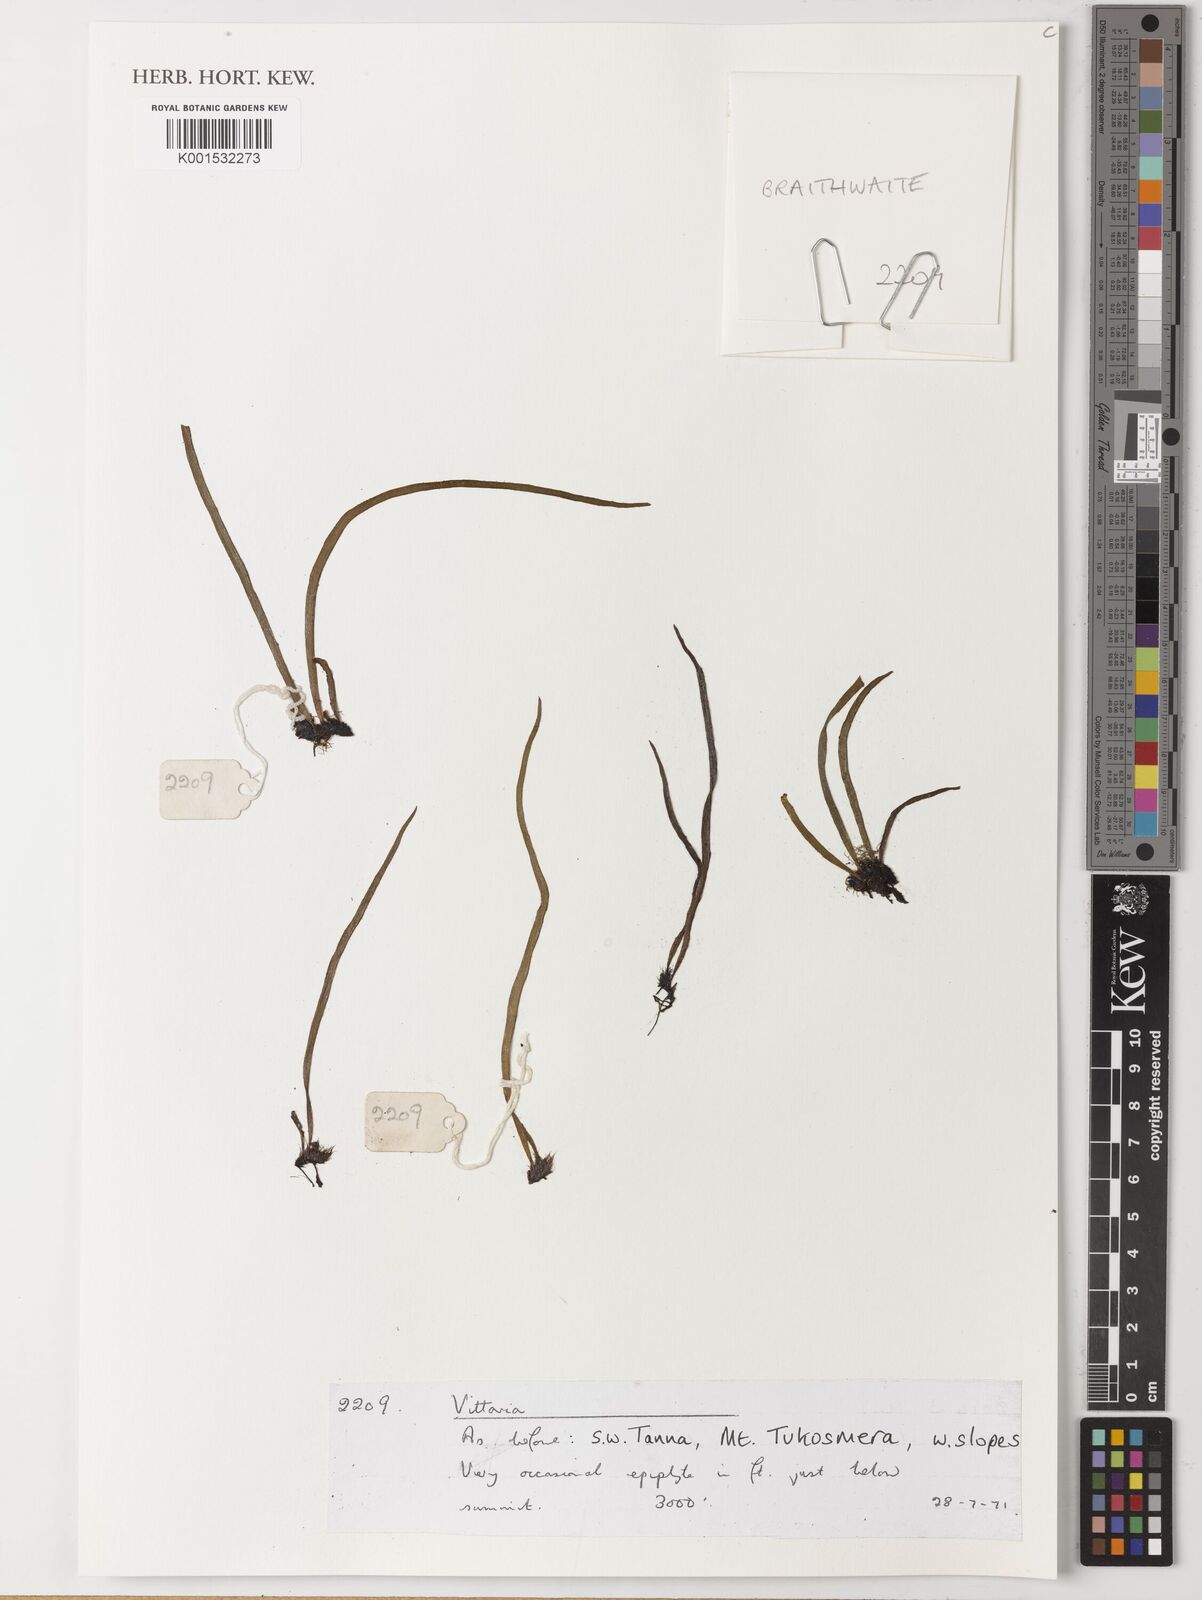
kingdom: Plantae
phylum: Tracheophyta
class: Polypodiopsida
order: Polypodiales
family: Pteridaceae
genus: Vittaria
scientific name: Vittaria
